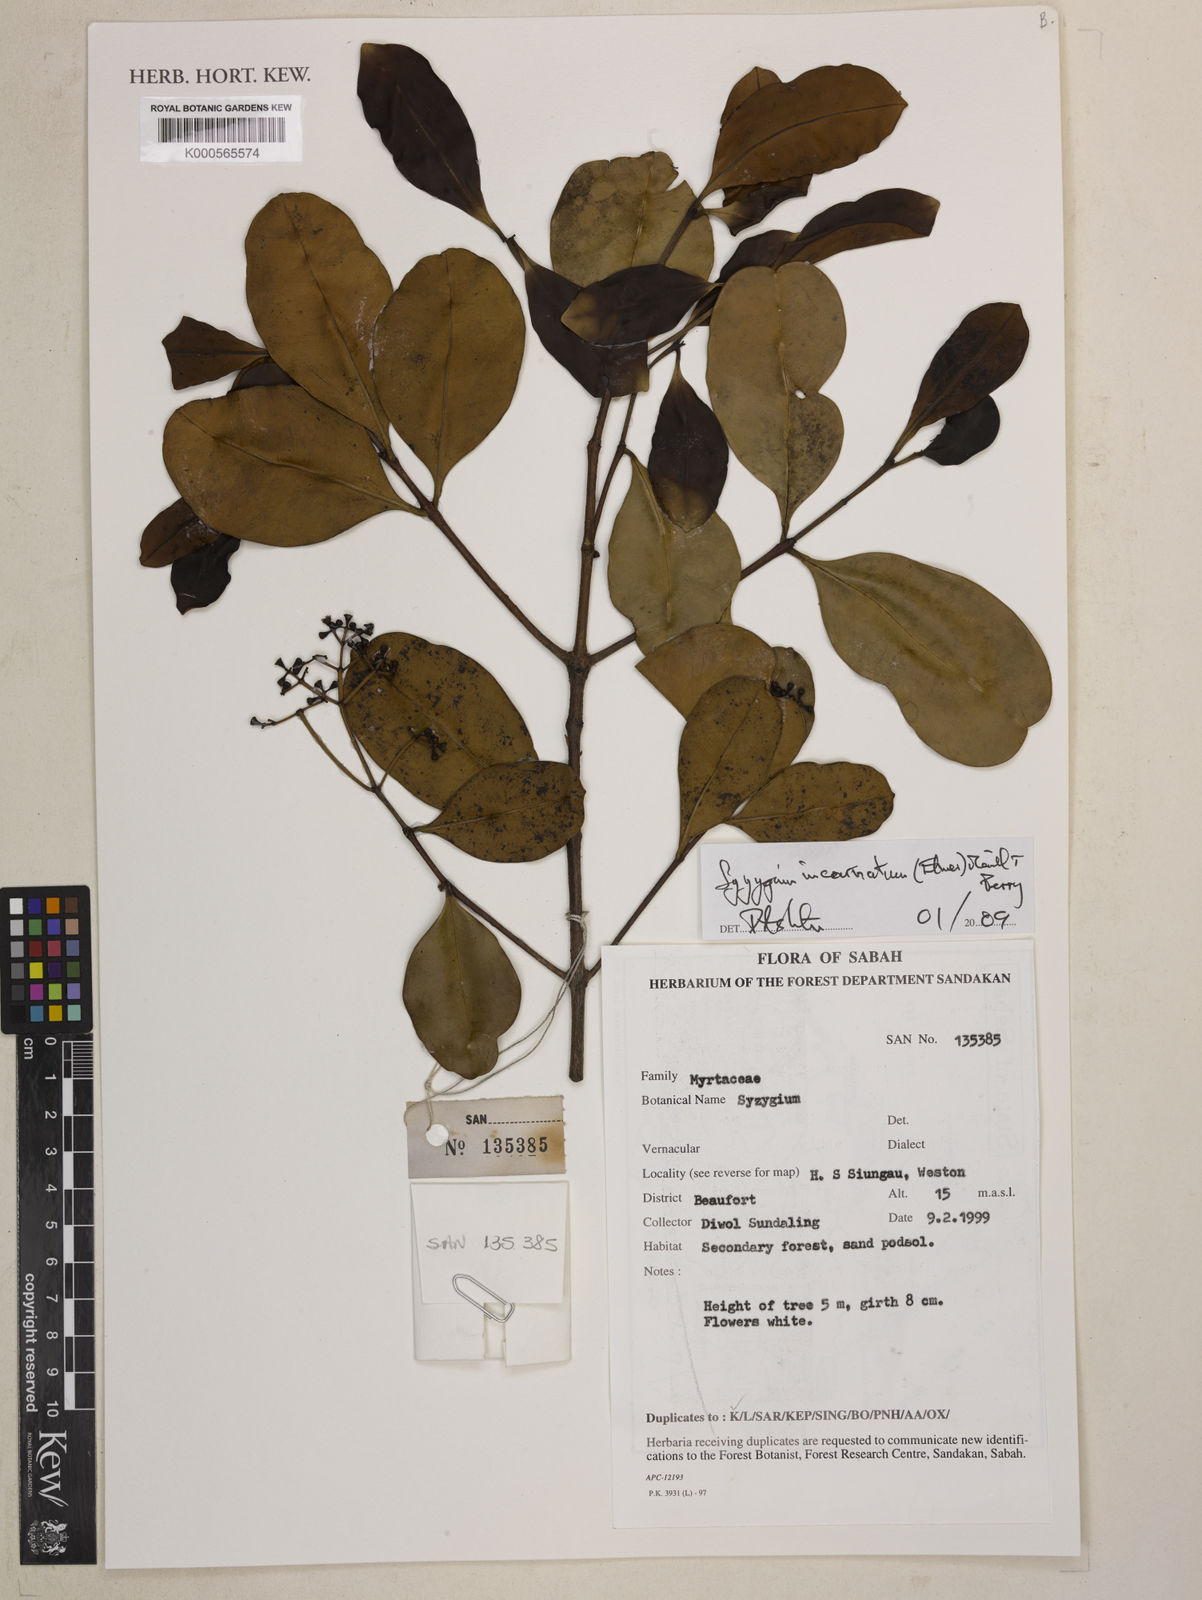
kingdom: Plantae
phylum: Tracheophyta
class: Magnoliopsida
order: Myrtales
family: Myrtaceae
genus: Syzygium
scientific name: Syzygium incarnatum
